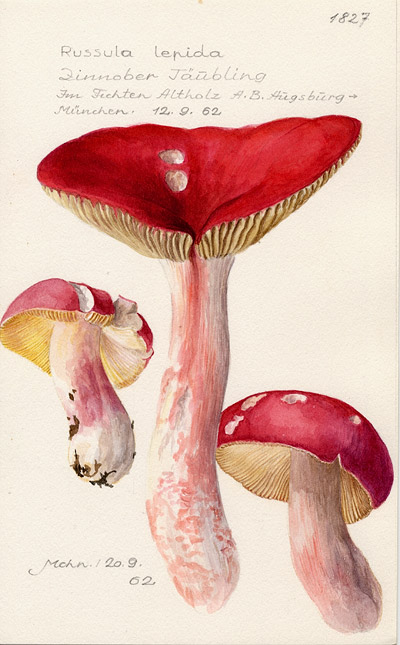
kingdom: Fungi
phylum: Basidiomycota
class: Agaricomycetes
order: Russulales
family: Russulaceae
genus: Russula
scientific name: Russula rosea
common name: Rosy brittlegill
